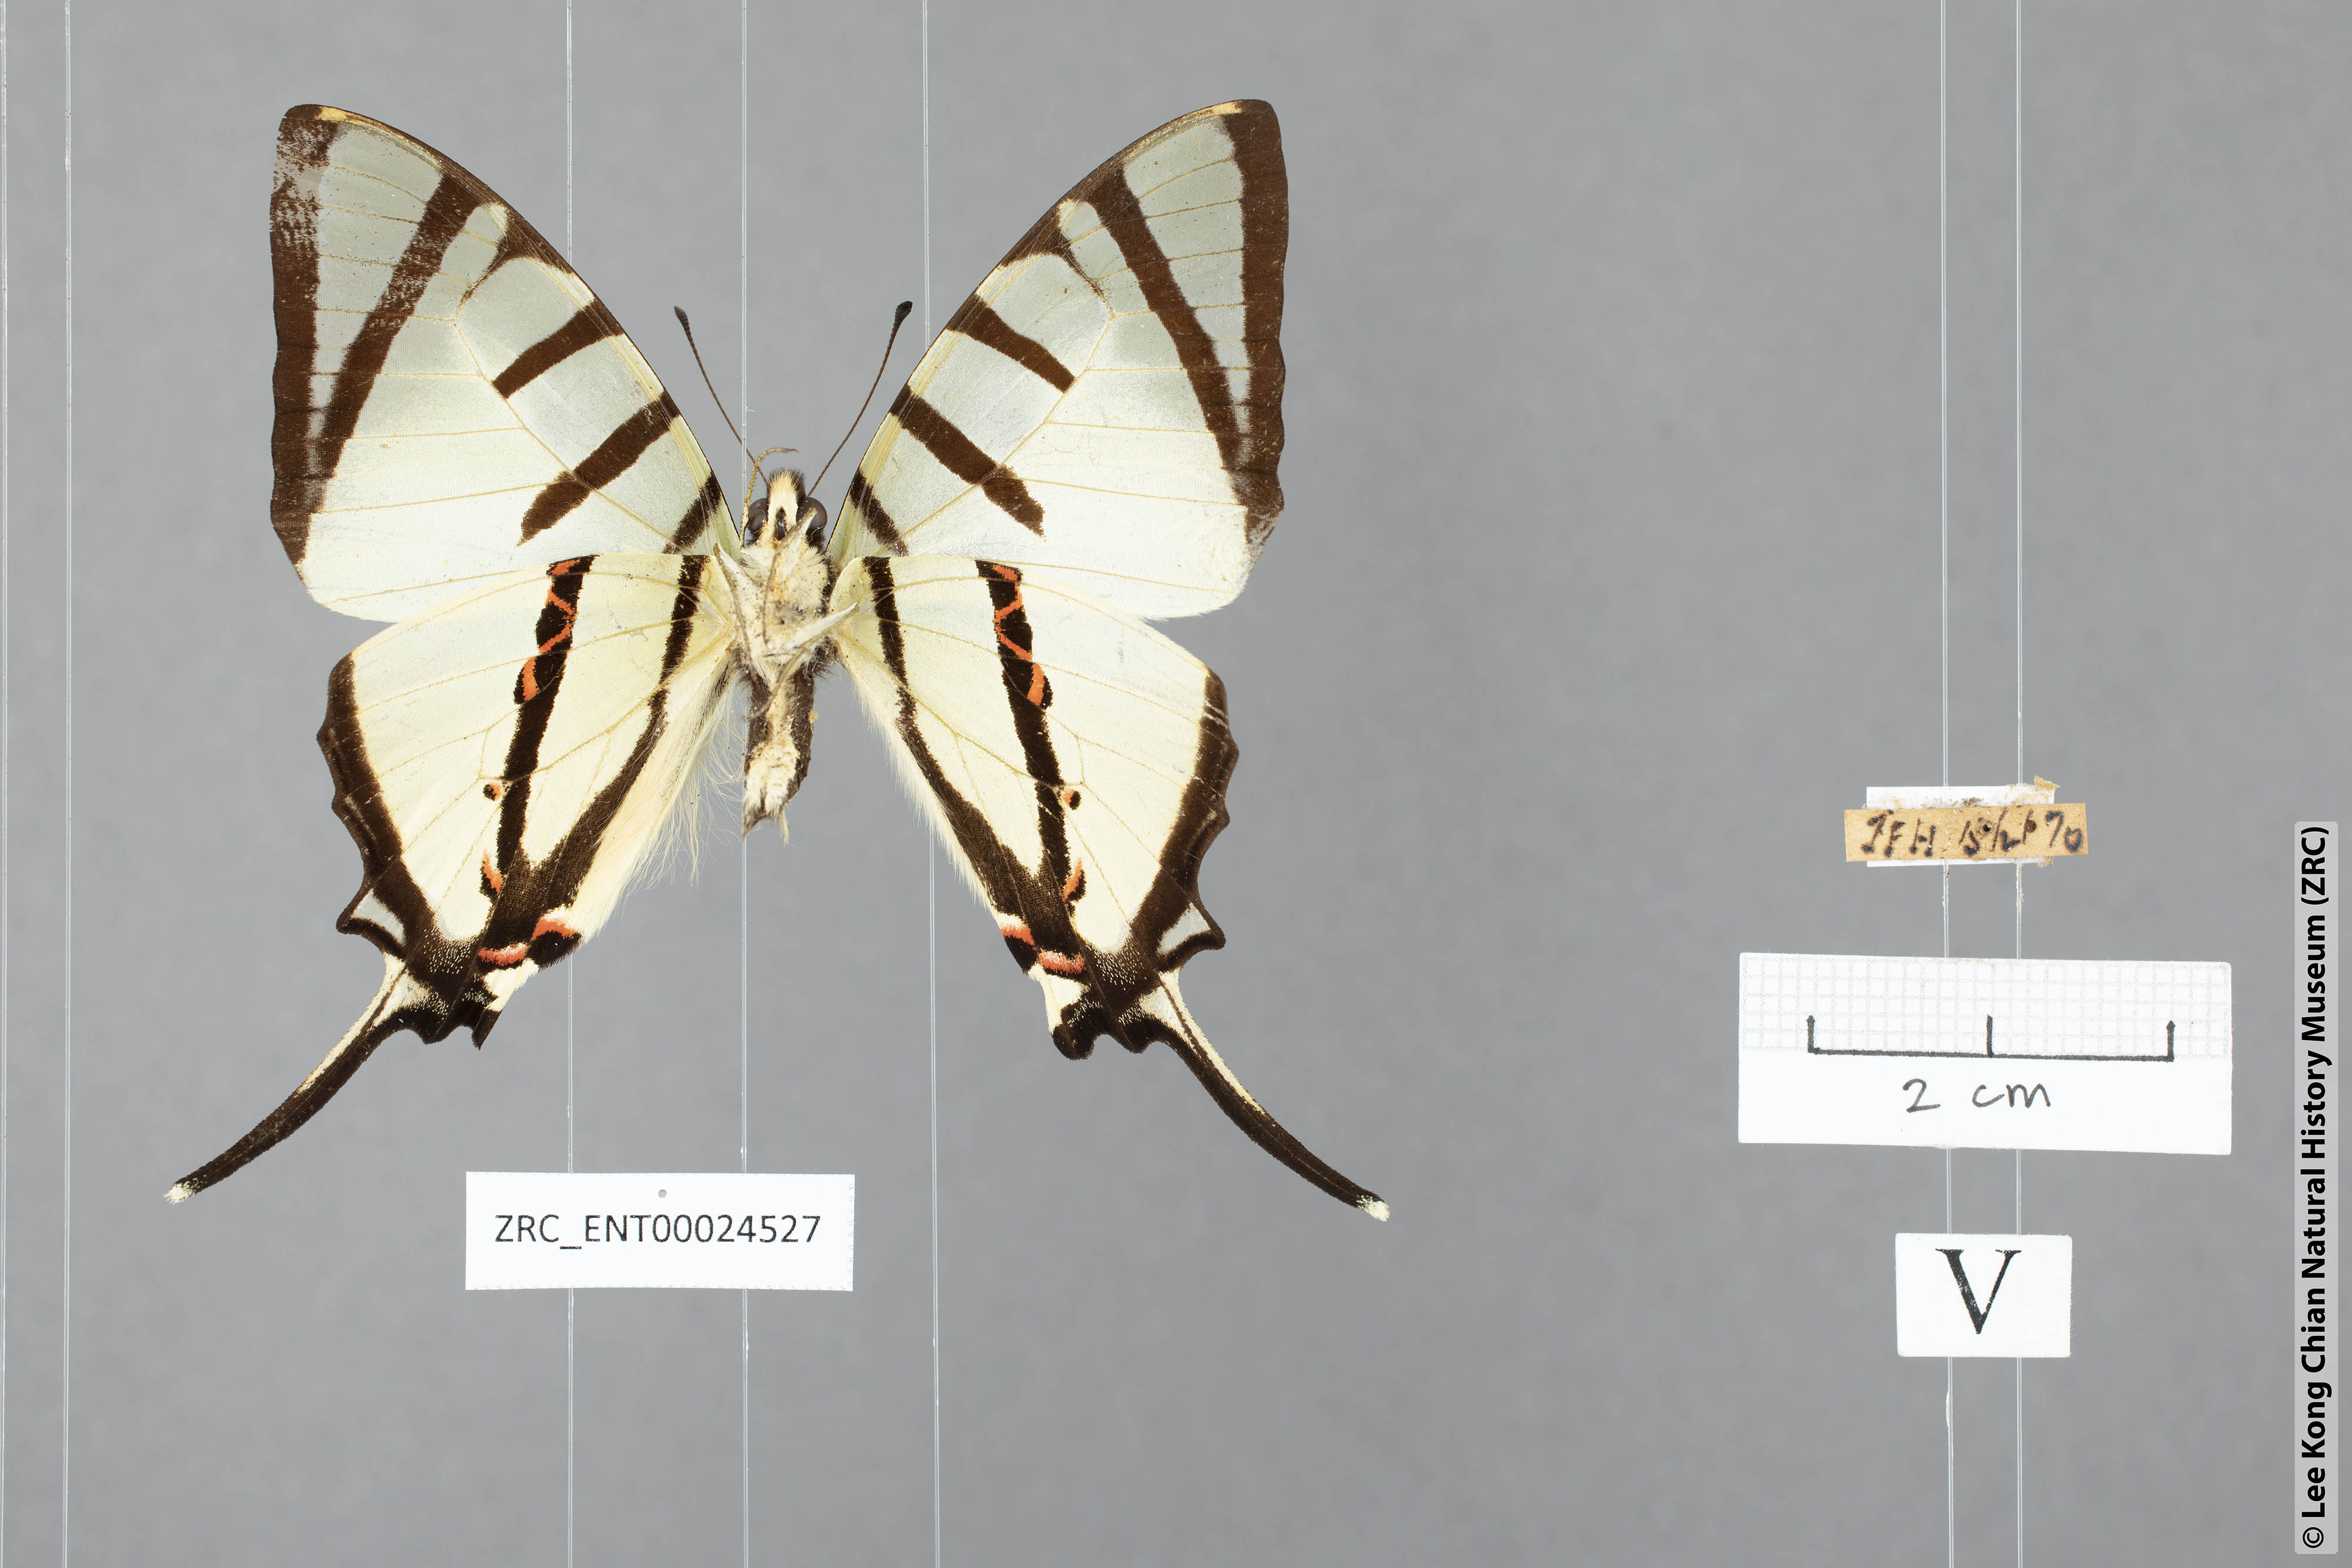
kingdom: Animalia
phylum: Arthropoda
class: Insecta
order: Lepidoptera
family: Papilionidae
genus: Graphium
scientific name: Graphium agetes
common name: Fourbar swordtail
